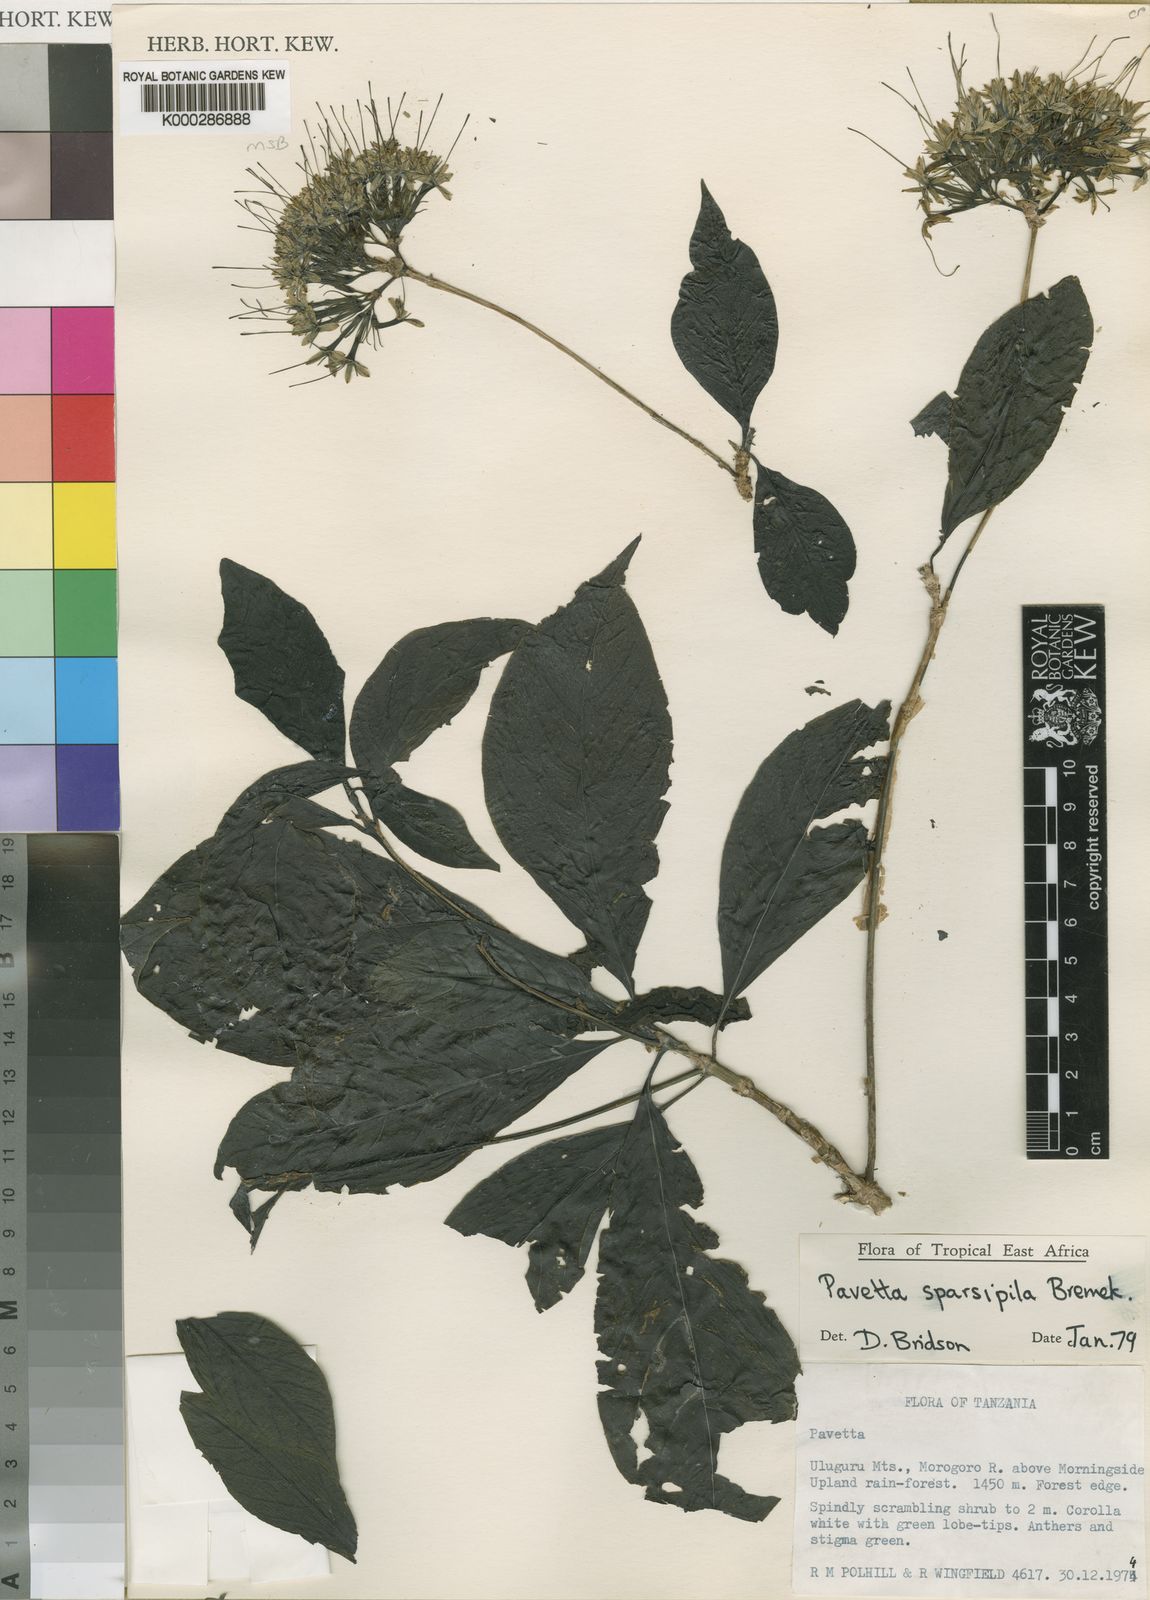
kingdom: Plantae
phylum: Tracheophyta
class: Magnoliopsida
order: Gentianales
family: Rubiaceae
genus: Pavetta
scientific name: Pavetta sparsipila
